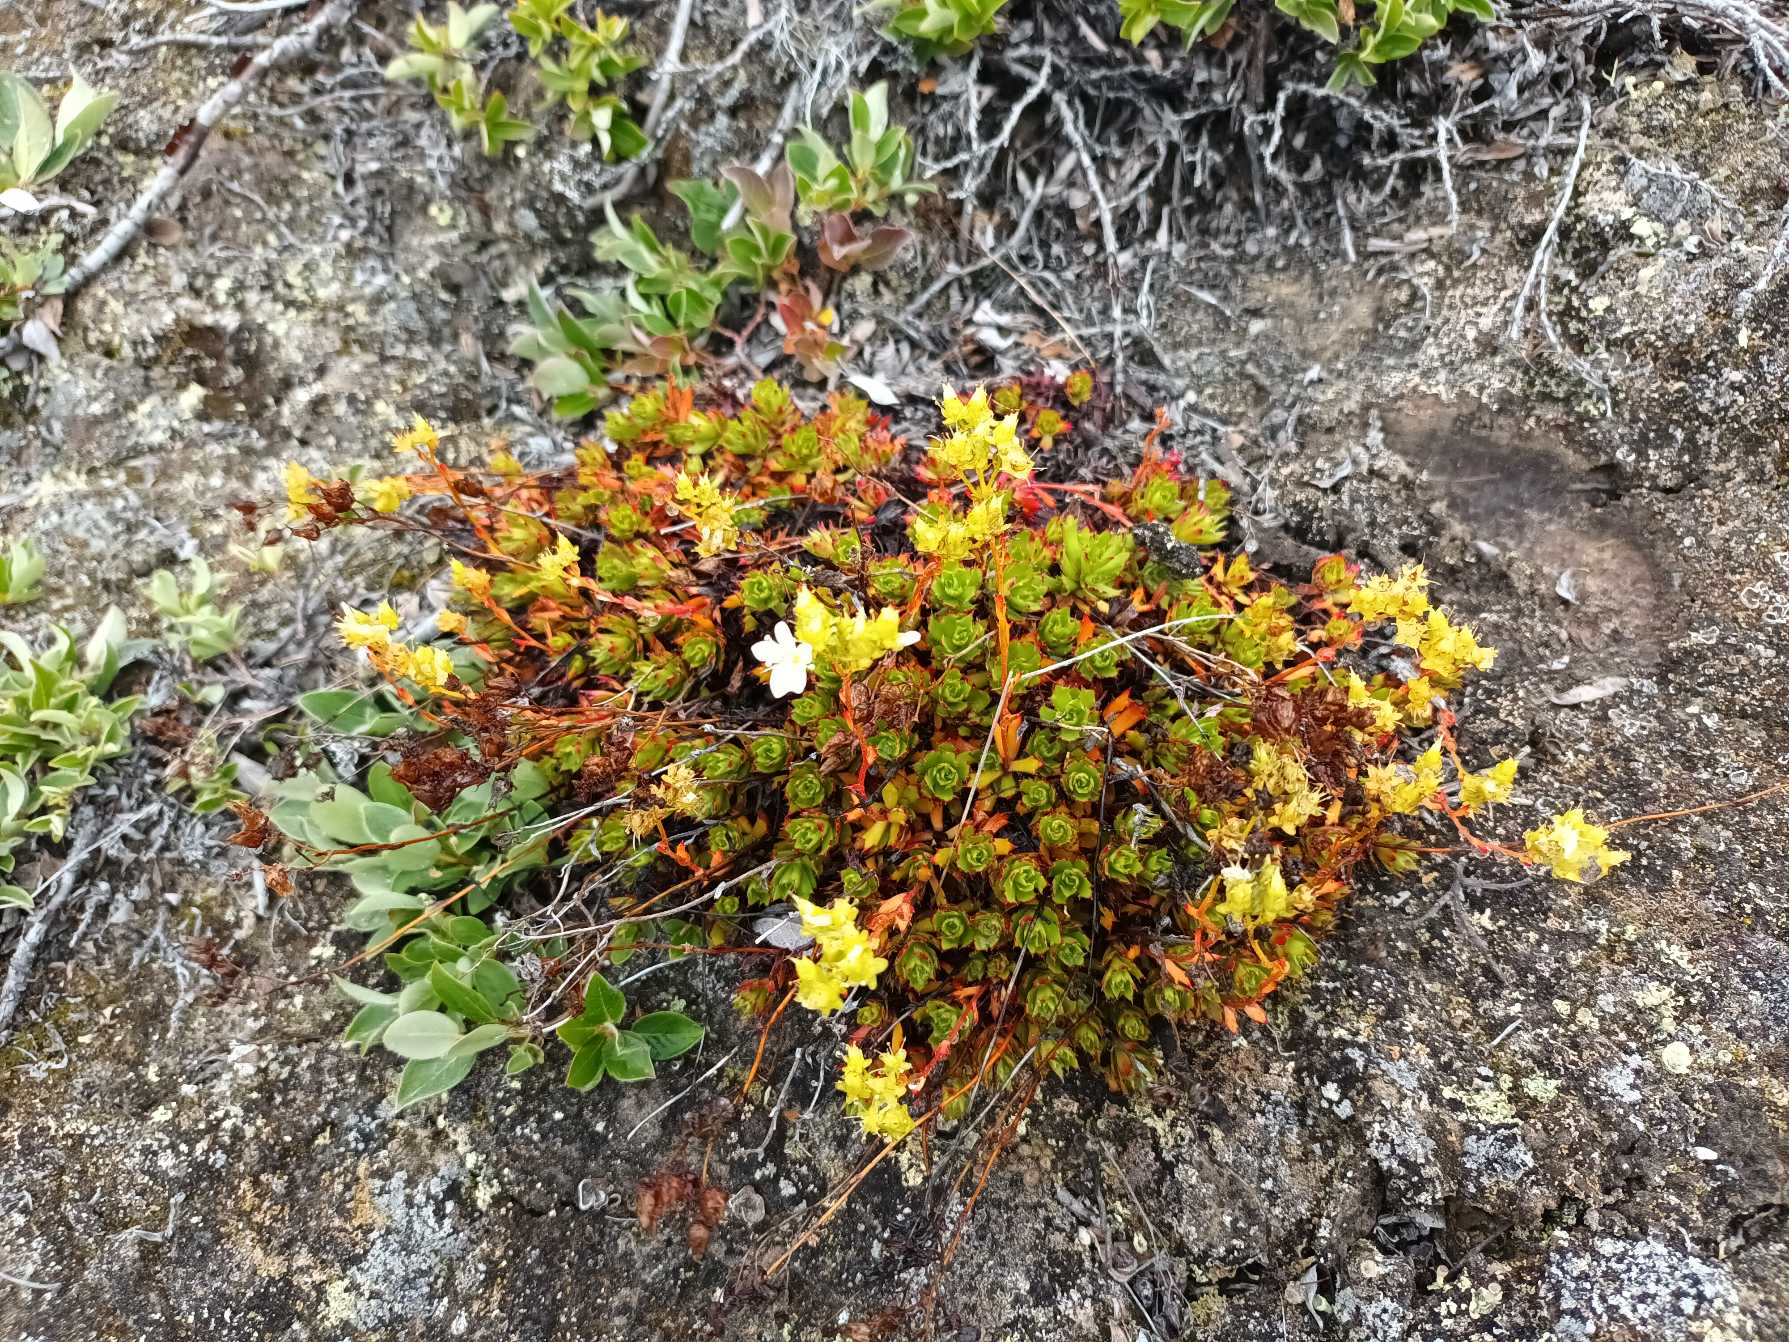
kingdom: Plantae
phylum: Tracheophyta
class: Magnoliopsida
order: Saxifragales
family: Saxifragaceae
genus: Saxifraga
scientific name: Saxifraga
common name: Stenbrækslægten
